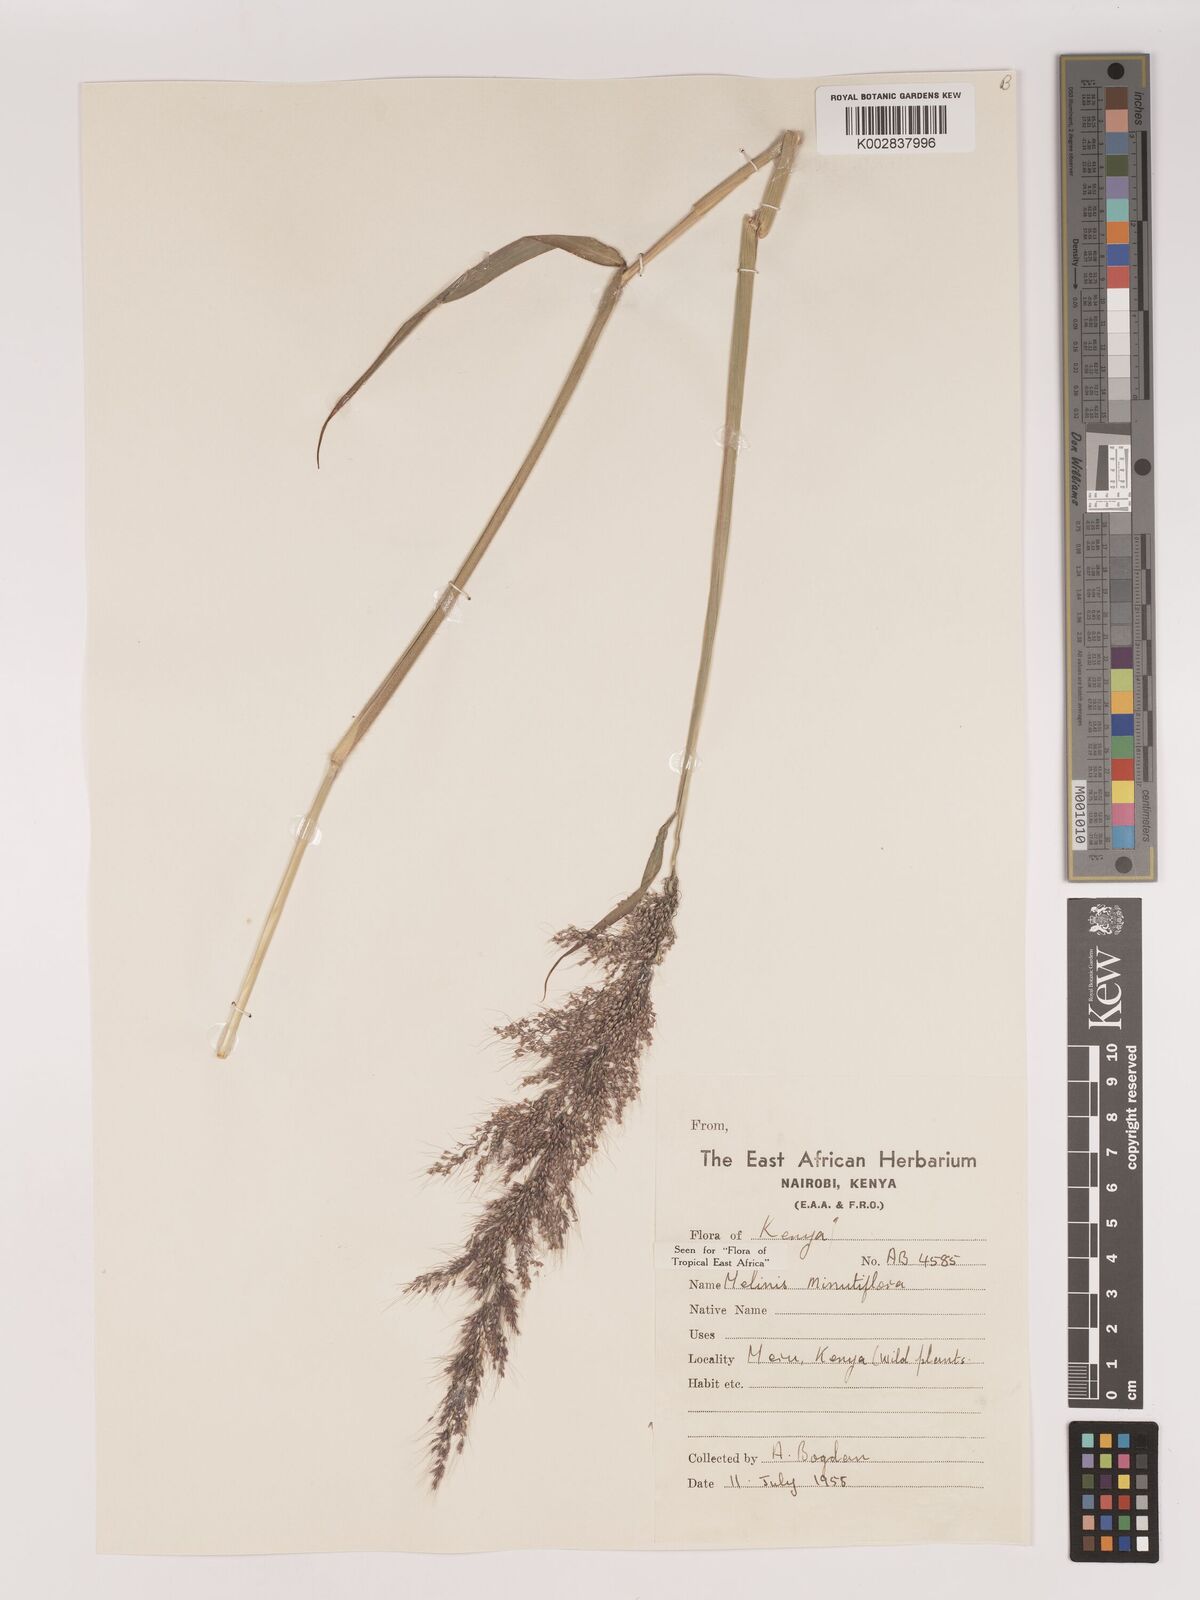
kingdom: Plantae
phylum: Tracheophyta
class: Liliopsida
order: Poales
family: Poaceae
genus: Melinis
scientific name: Melinis minutiflora
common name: Molassesgrass
